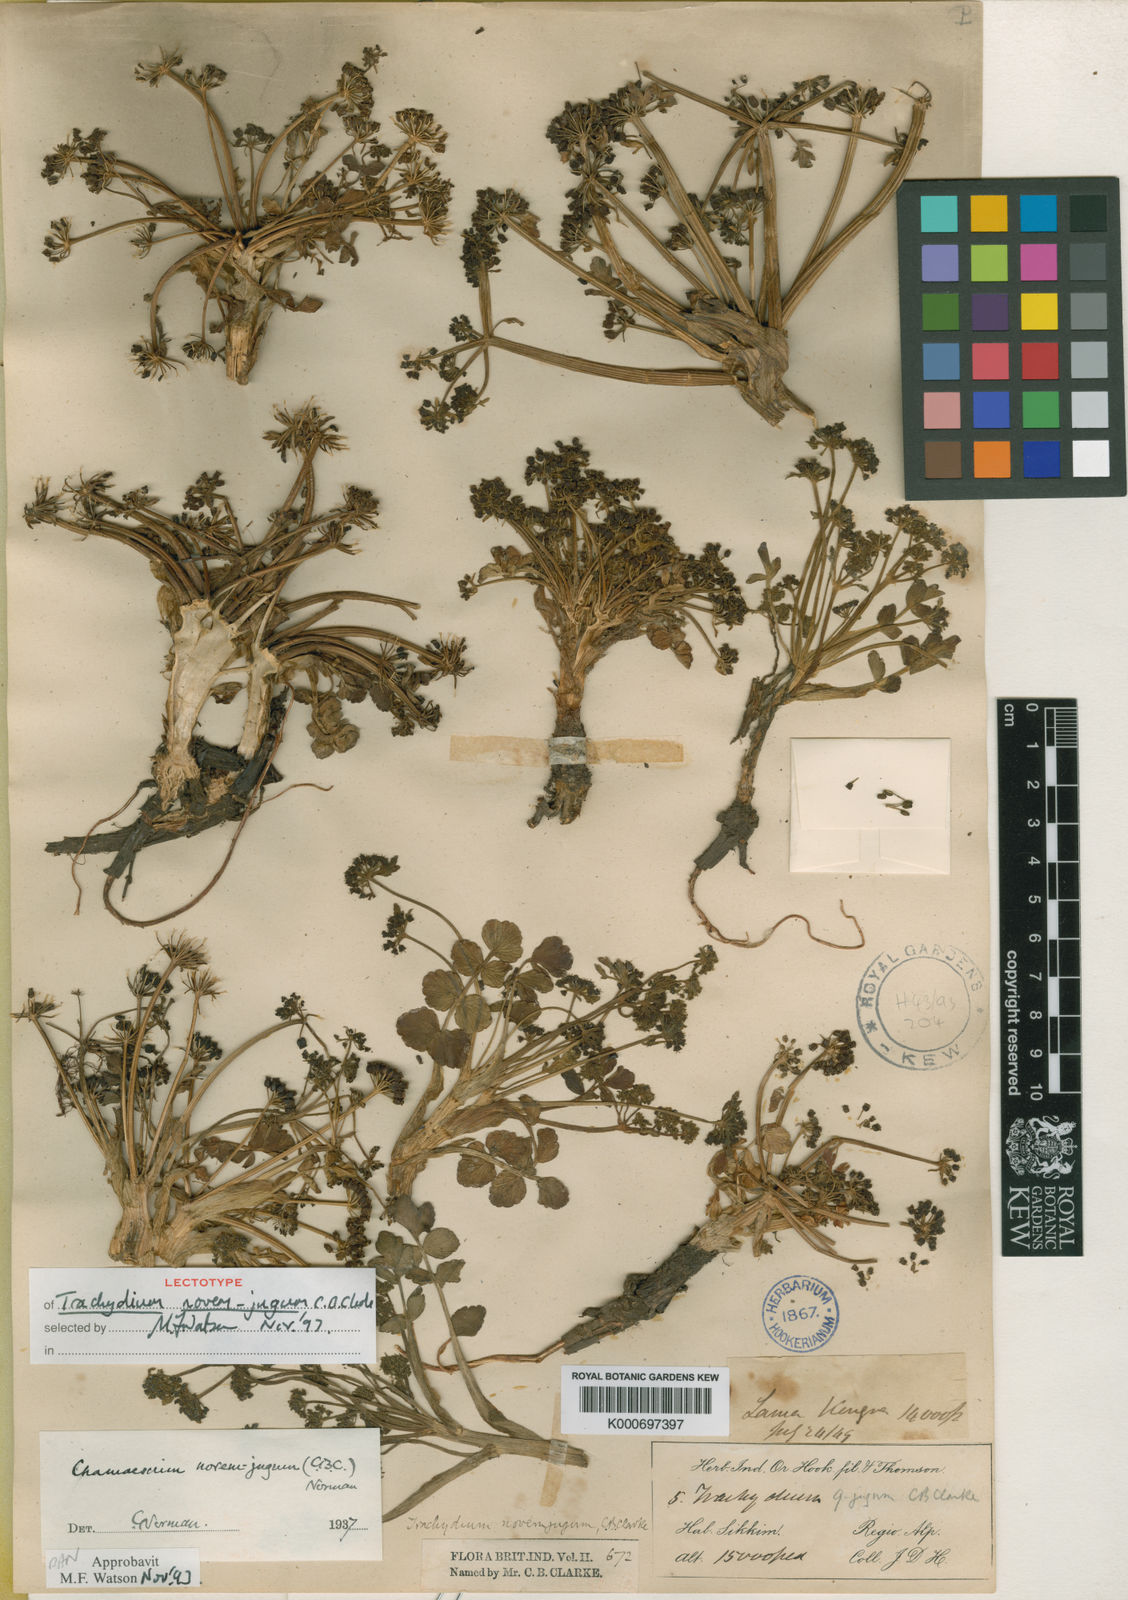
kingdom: Plantae
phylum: Tracheophyta
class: Magnoliopsida
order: Apiales
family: Apiaceae
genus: Chamaesium
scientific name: Chamaesium novem-jugum
